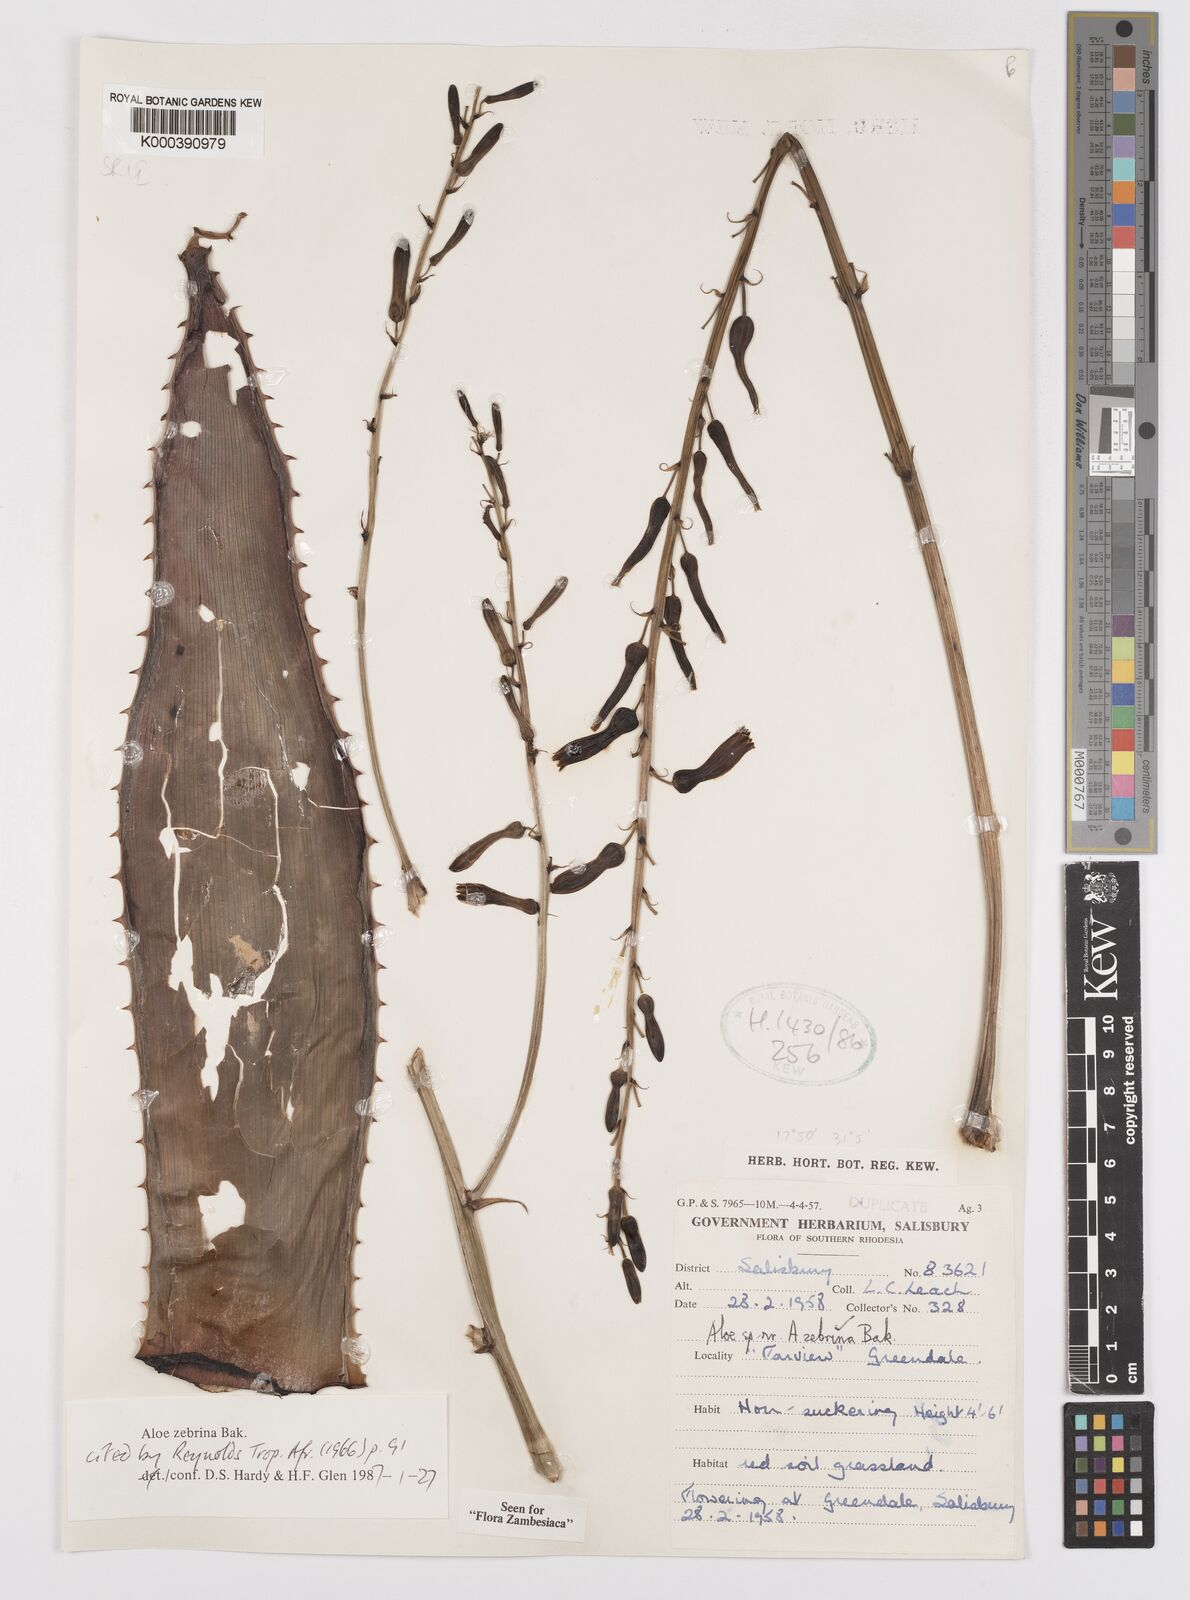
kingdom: Plantae
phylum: Tracheophyta
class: Liliopsida
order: Asparagales
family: Asphodelaceae
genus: Aloe
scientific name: Aloe zebrina
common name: Zebra-leaf aloe
